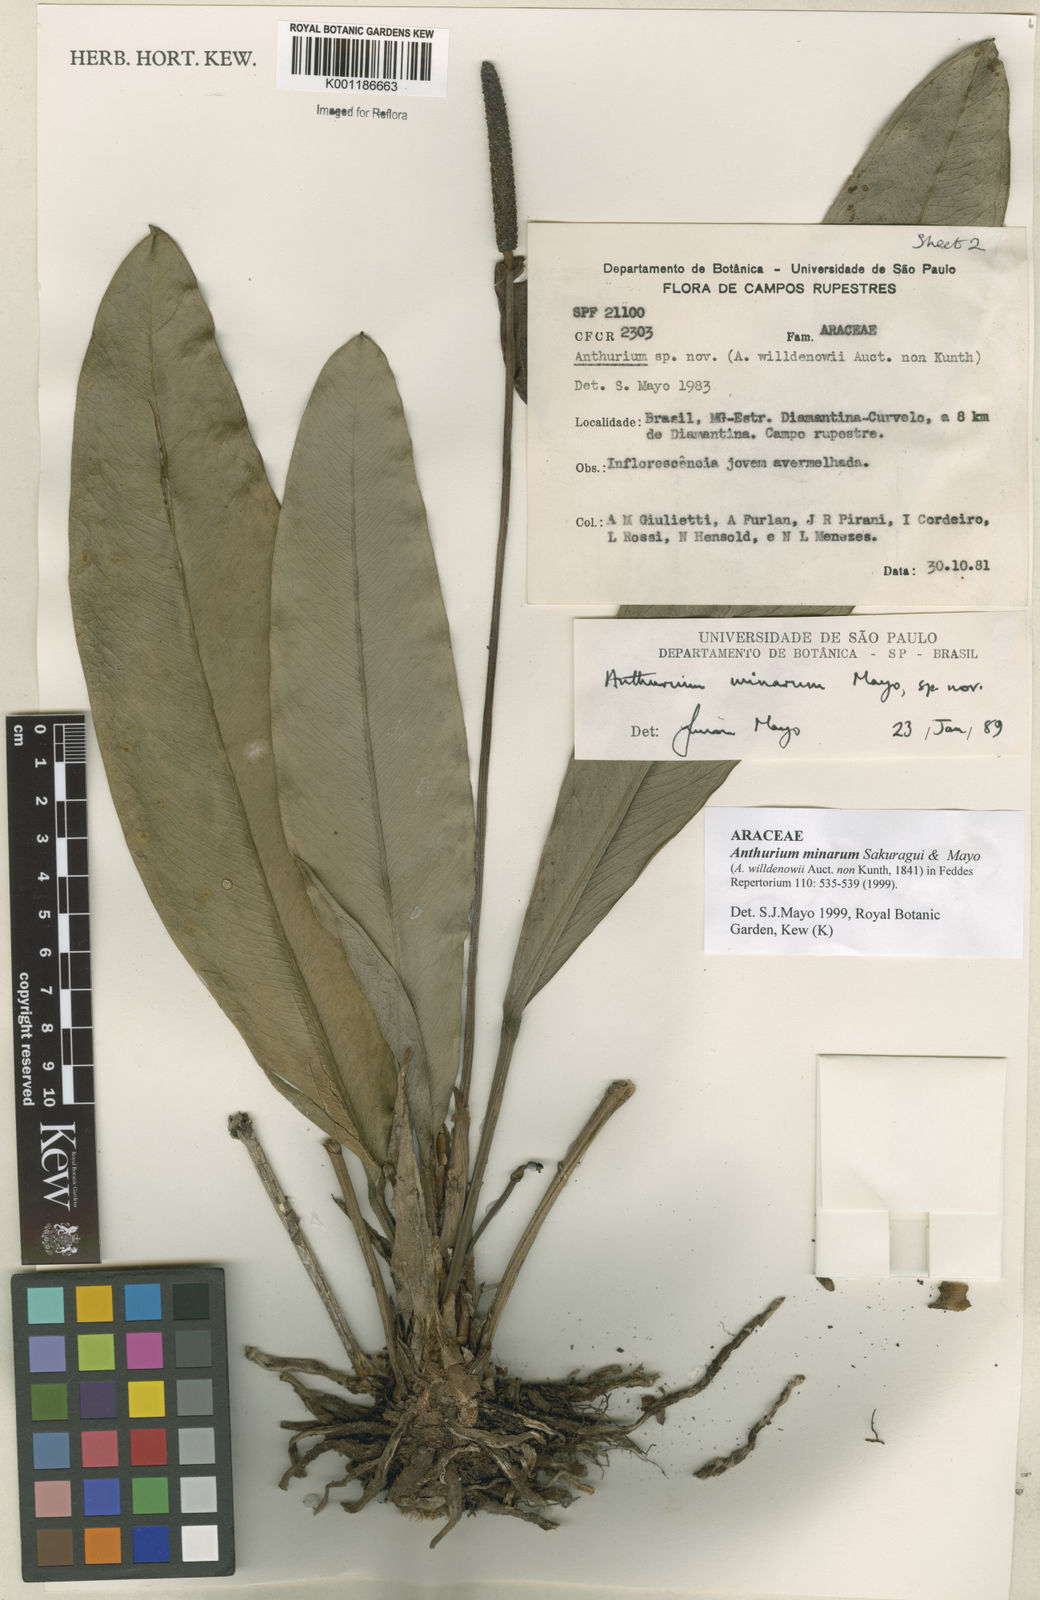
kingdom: Plantae
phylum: Tracheophyta
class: Liliopsida
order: Alismatales
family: Araceae
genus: Anthurium
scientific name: Anthurium minarum
